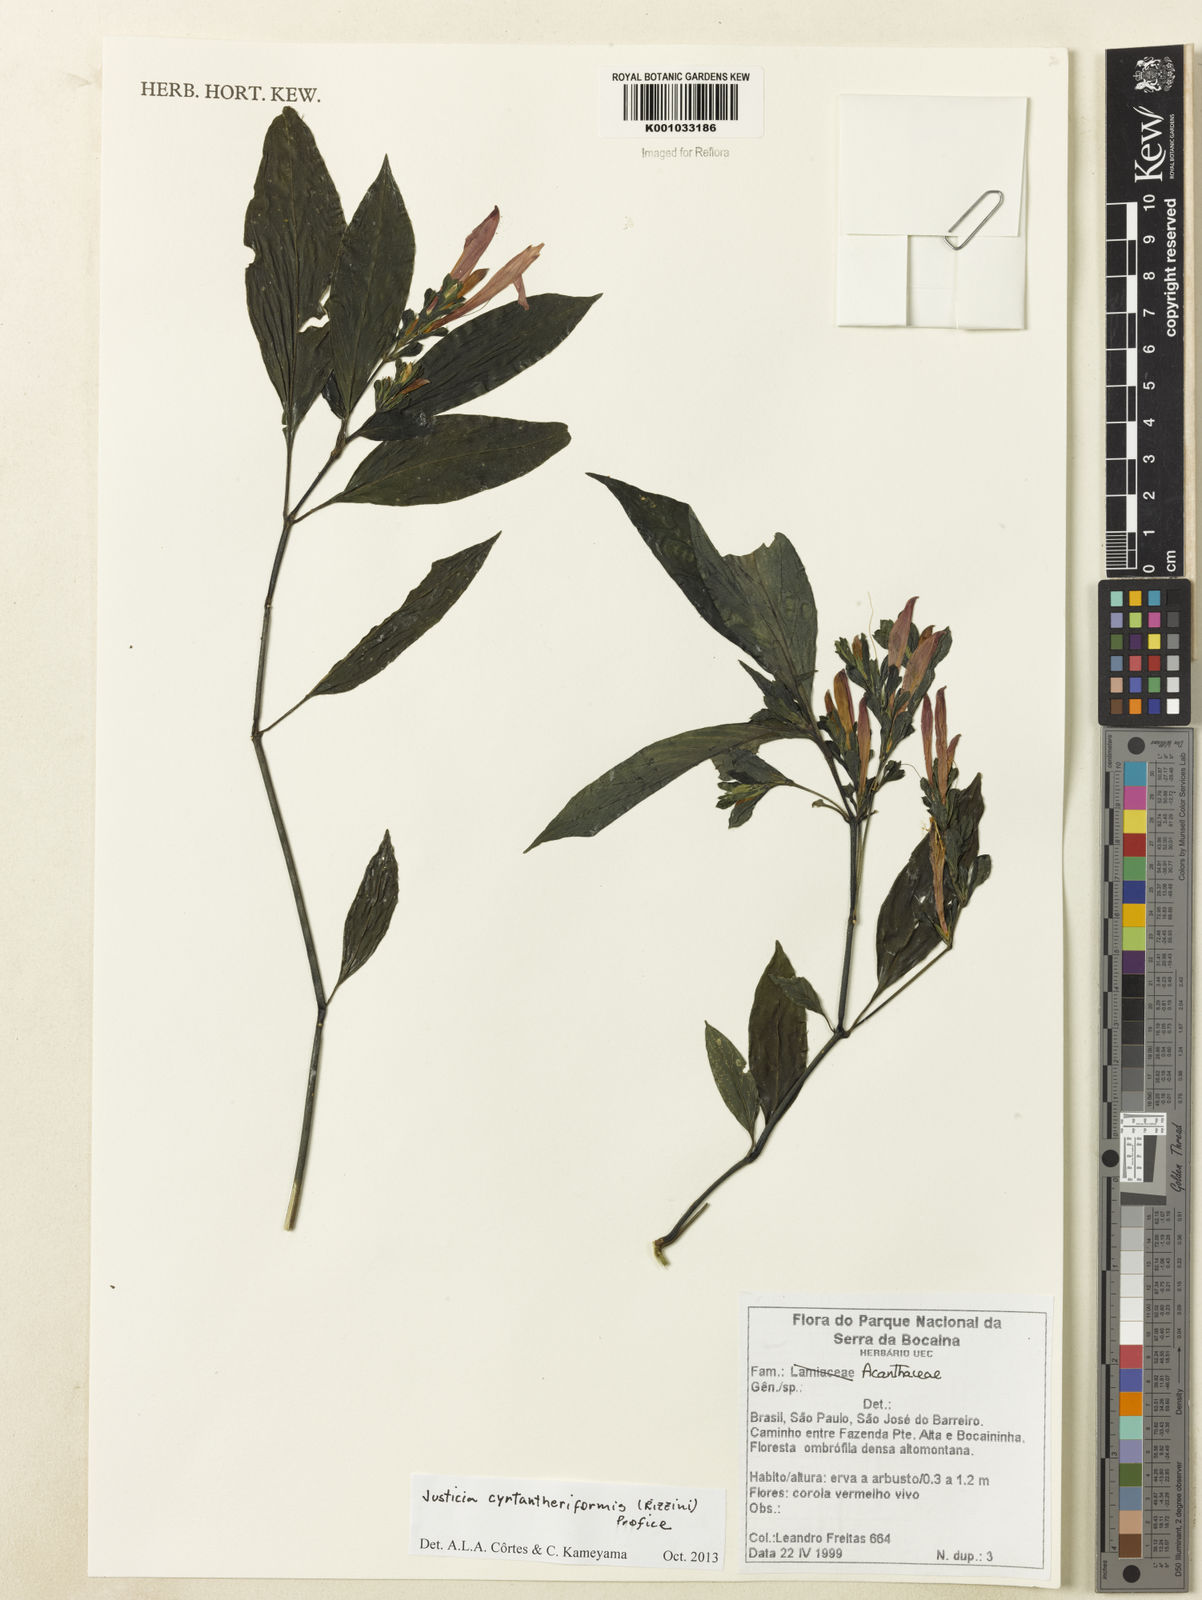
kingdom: Plantae
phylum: Tracheophyta
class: Magnoliopsida
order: Lamiales
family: Acanthaceae
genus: Justicia
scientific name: Justicia cyrtantheriformis
